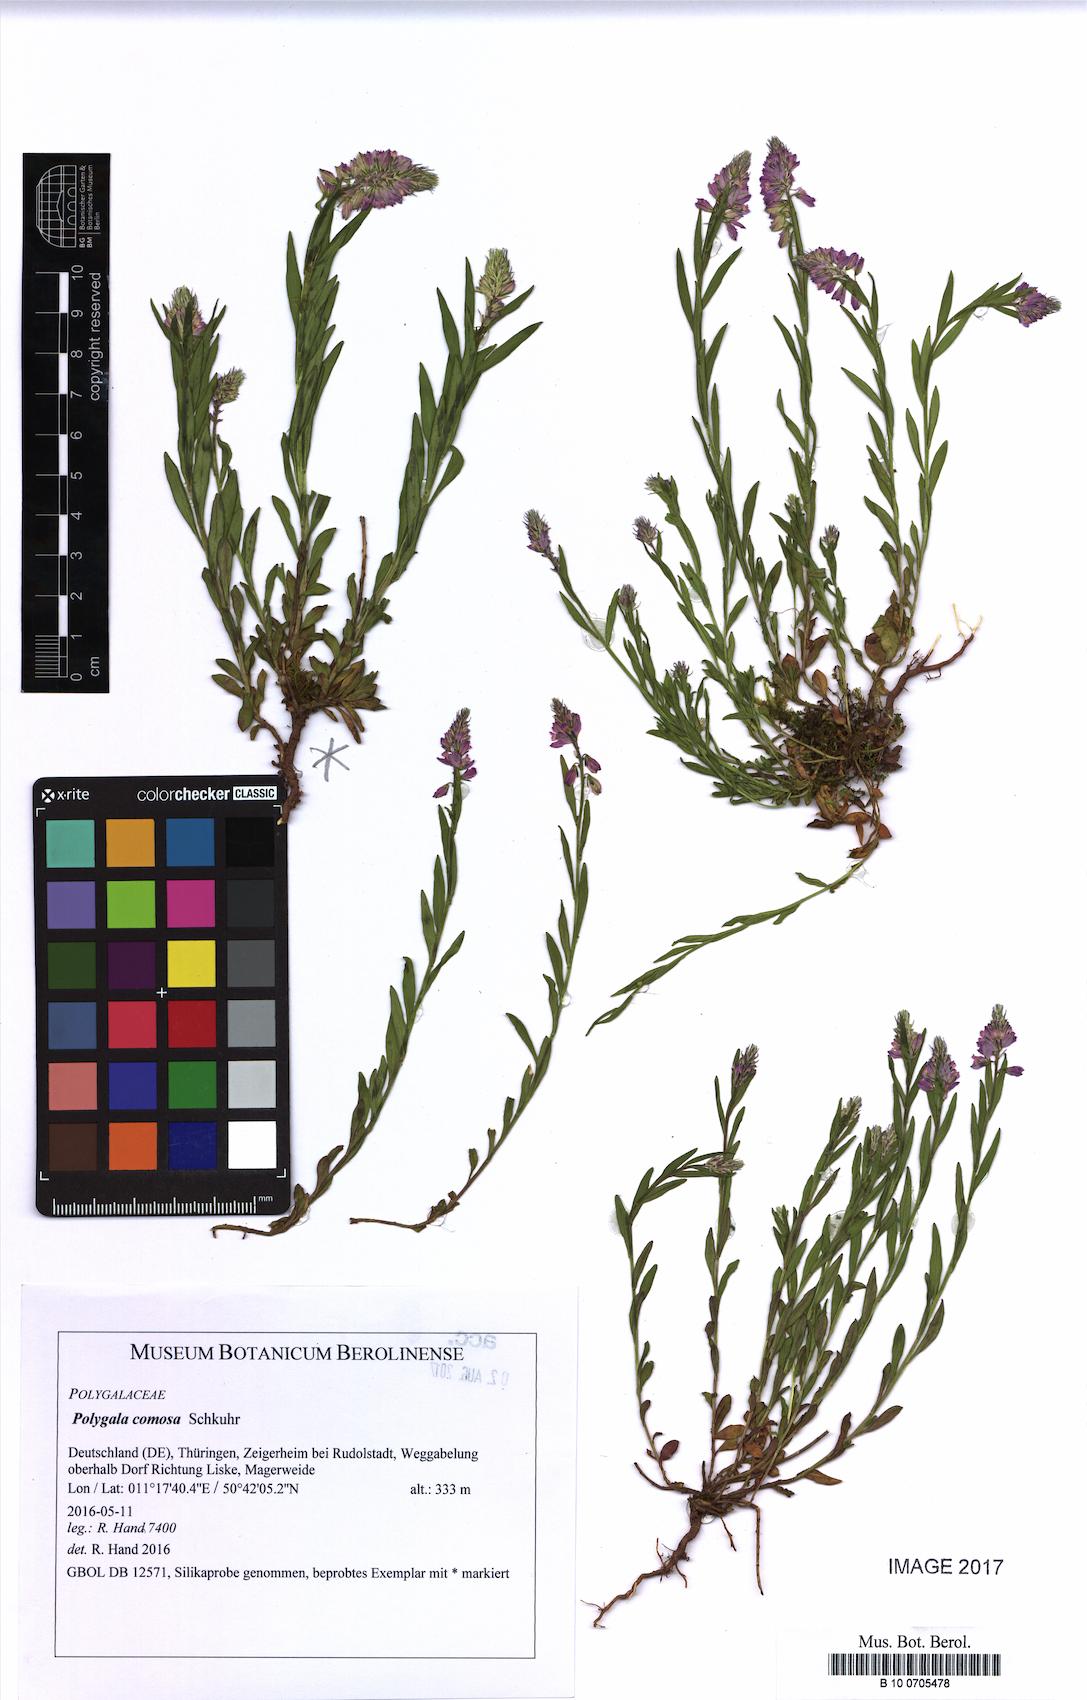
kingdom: Plantae
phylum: Tracheophyta
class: Magnoliopsida
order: Fabales
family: Polygalaceae
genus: Polygala
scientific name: Polygala comosa
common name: Tufted milkwort
